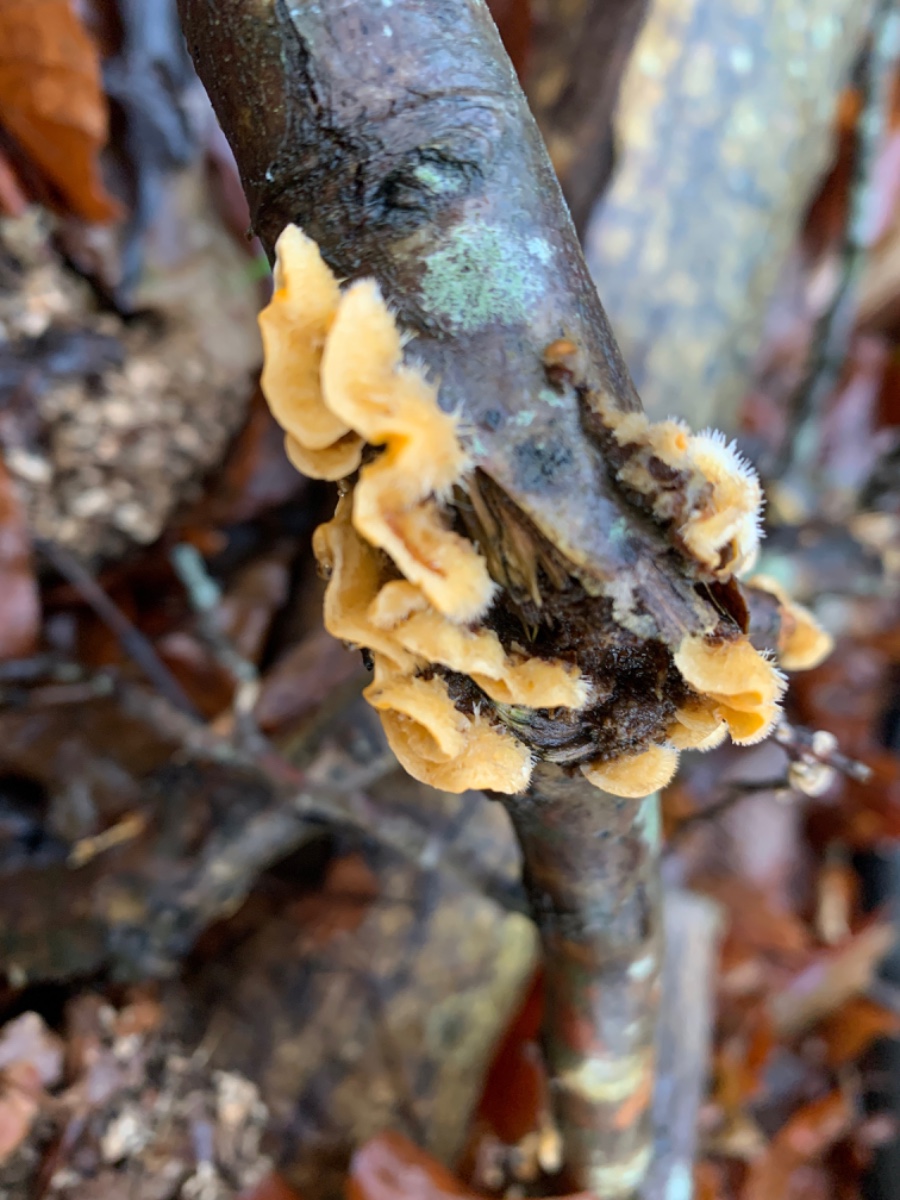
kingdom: Fungi
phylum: Basidiomycota
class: Agaricomycetes
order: Russulales
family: Stereaceae
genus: Stereum
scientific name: Stereum hirsutum
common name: håret lædersvamp
